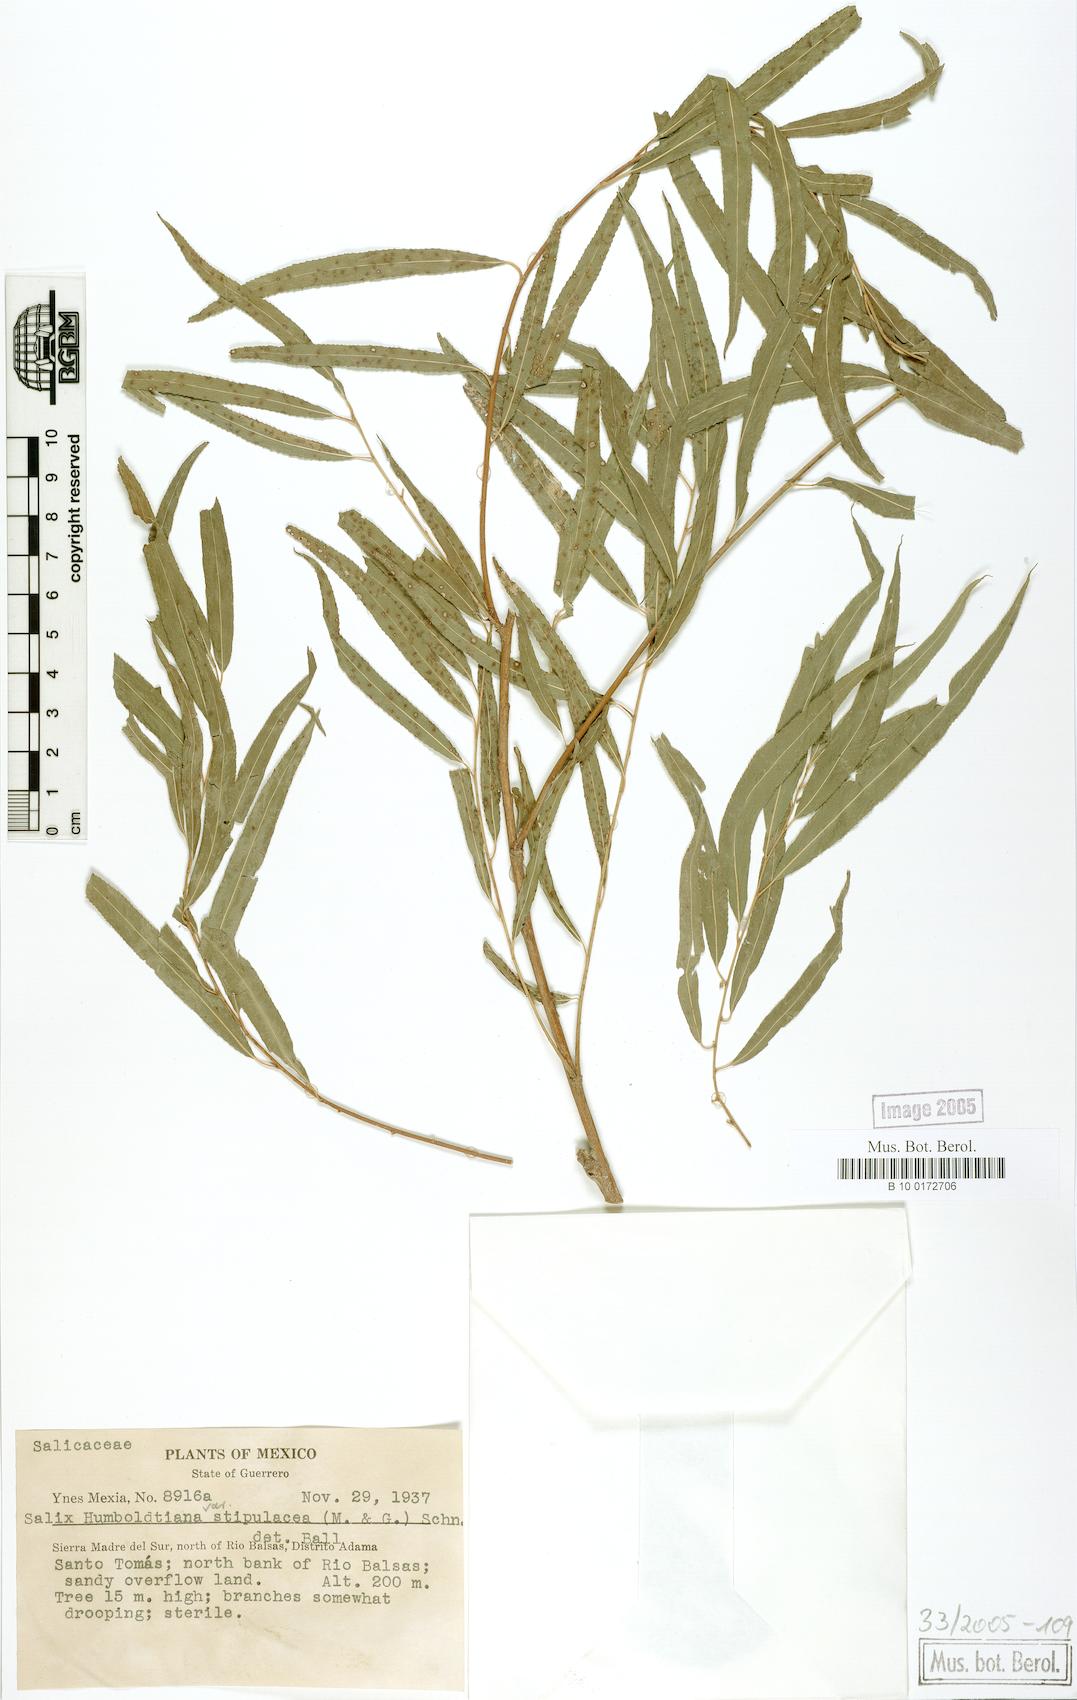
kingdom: Plantae
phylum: Tracheophyta
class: Magnoliopsida
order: Malpighiales
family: Salicaceae
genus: Salix
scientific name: Salix humboldtiana
